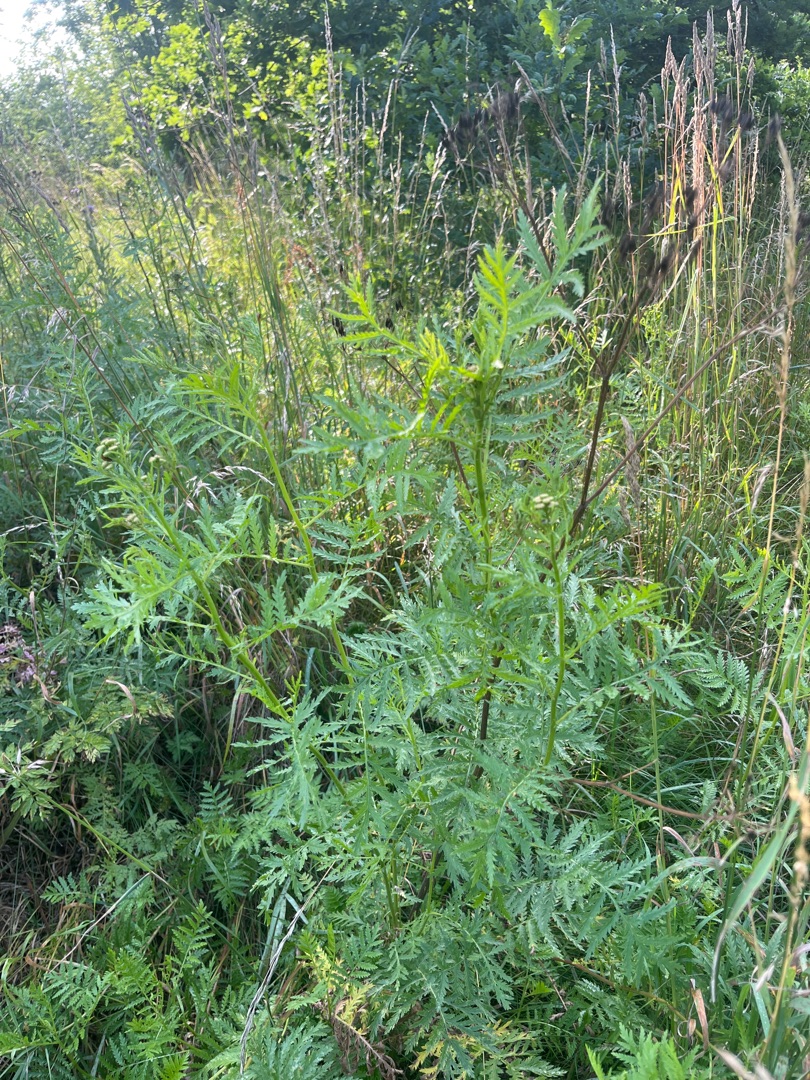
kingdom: Plantae
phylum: Tracheophyta
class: Magnoliopsida
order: Asterales
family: Asteraceae
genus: Tanacetum
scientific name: Tanacetum vulgare
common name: Rejnfan
